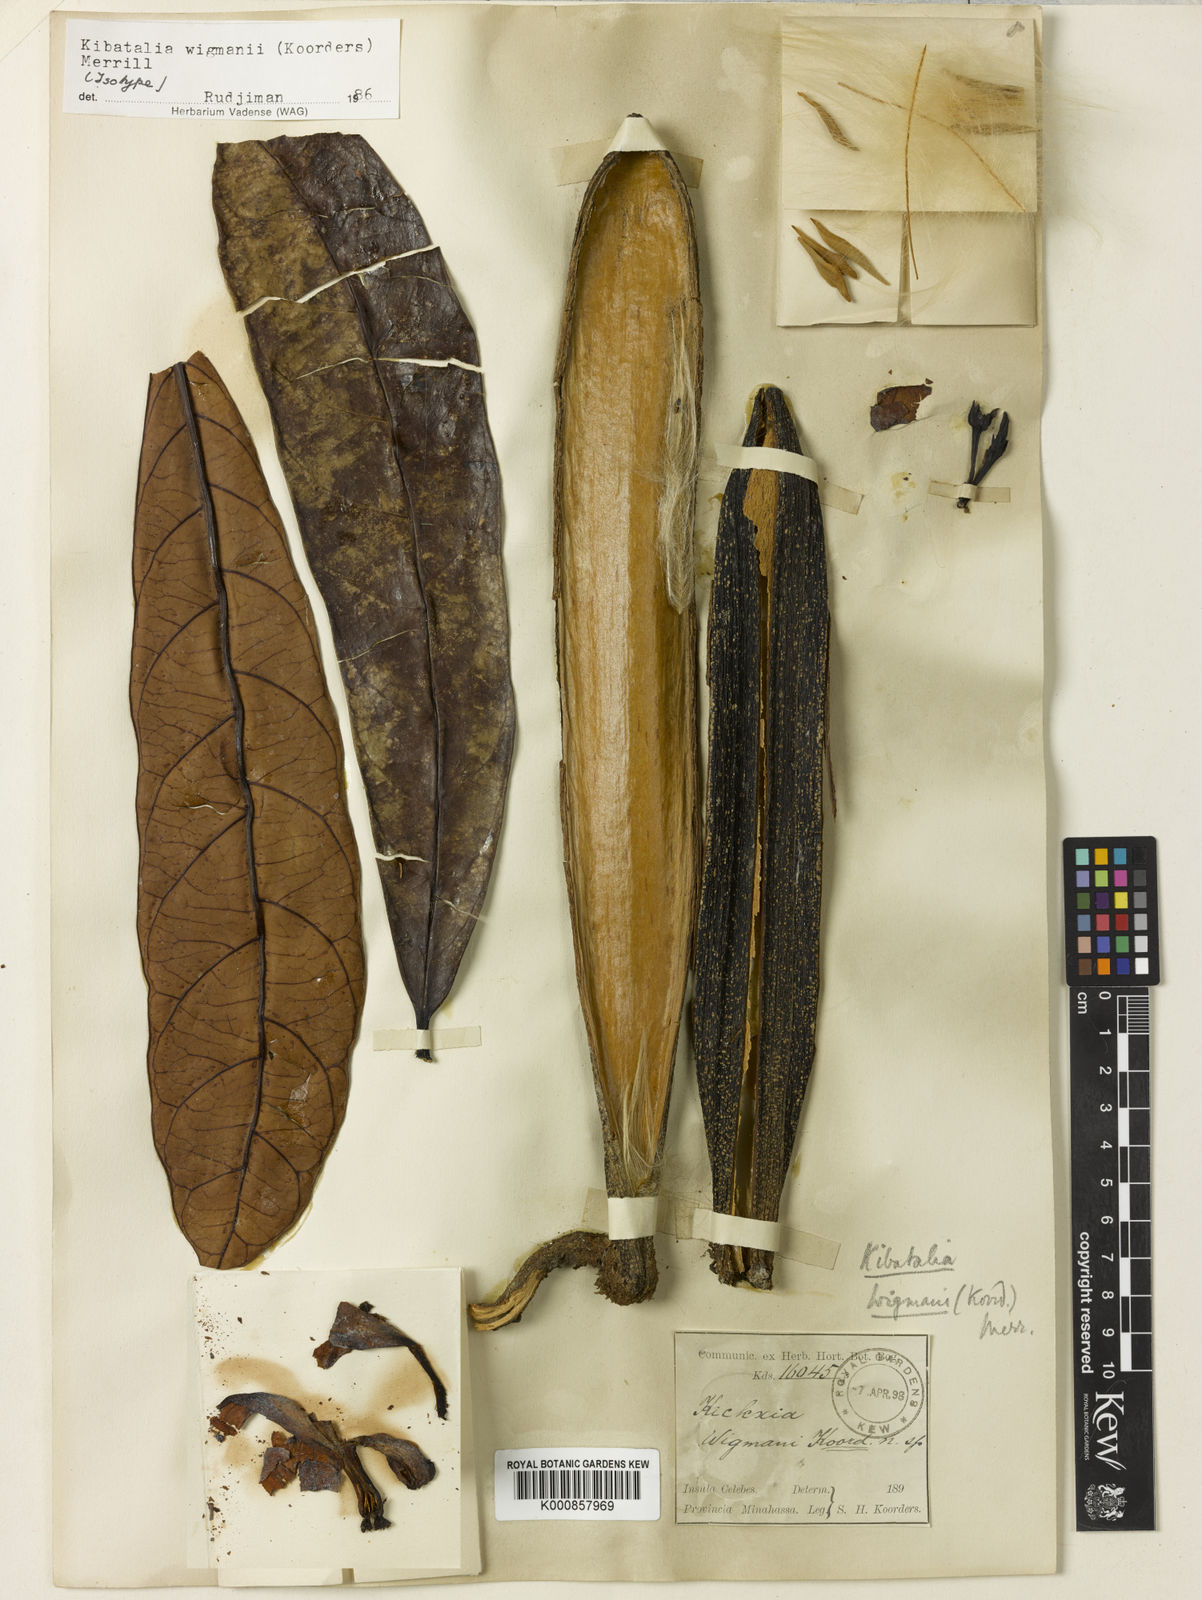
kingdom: Plantae
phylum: Tracheophyta
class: Magnoliopsida
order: Gentianales
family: Apocynaceae
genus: Kibatalia
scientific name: Kibatalia wigmanii
